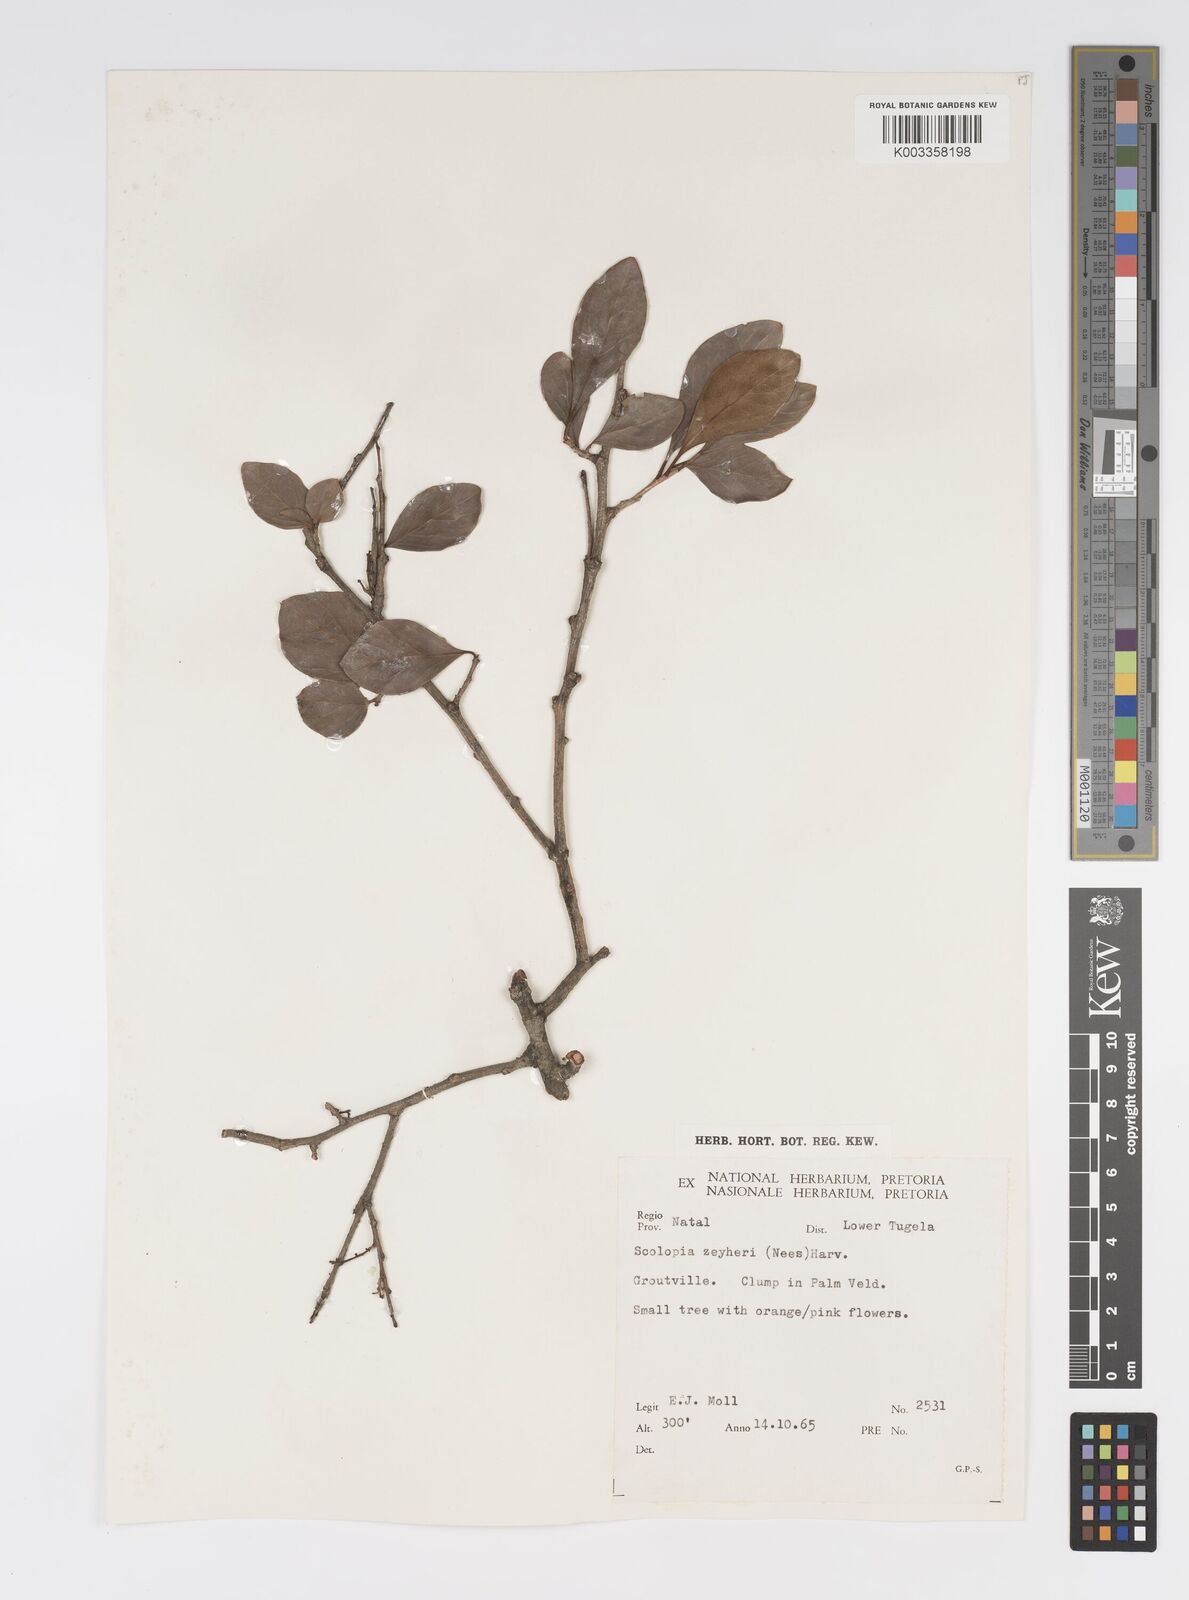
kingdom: Plantae
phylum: Tracheophyta
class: Magnoliopsida
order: Malpighiales
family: Salicaceae
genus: Scolopia
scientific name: Scolopia zeyheri
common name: Thorn pear
